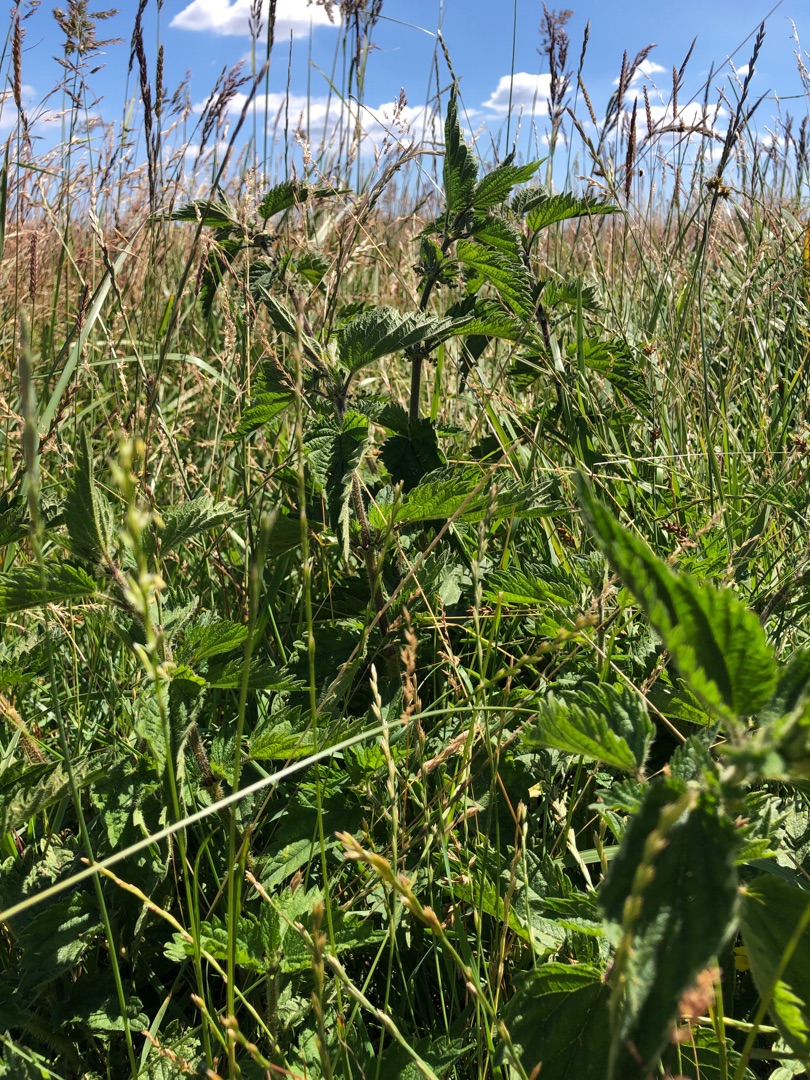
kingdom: Plantae
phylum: Tracheophyta
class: Magnoliopsida
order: Rosales
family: Urticaceae
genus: Urtica
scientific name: Urtica dioica
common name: Stor nælde
